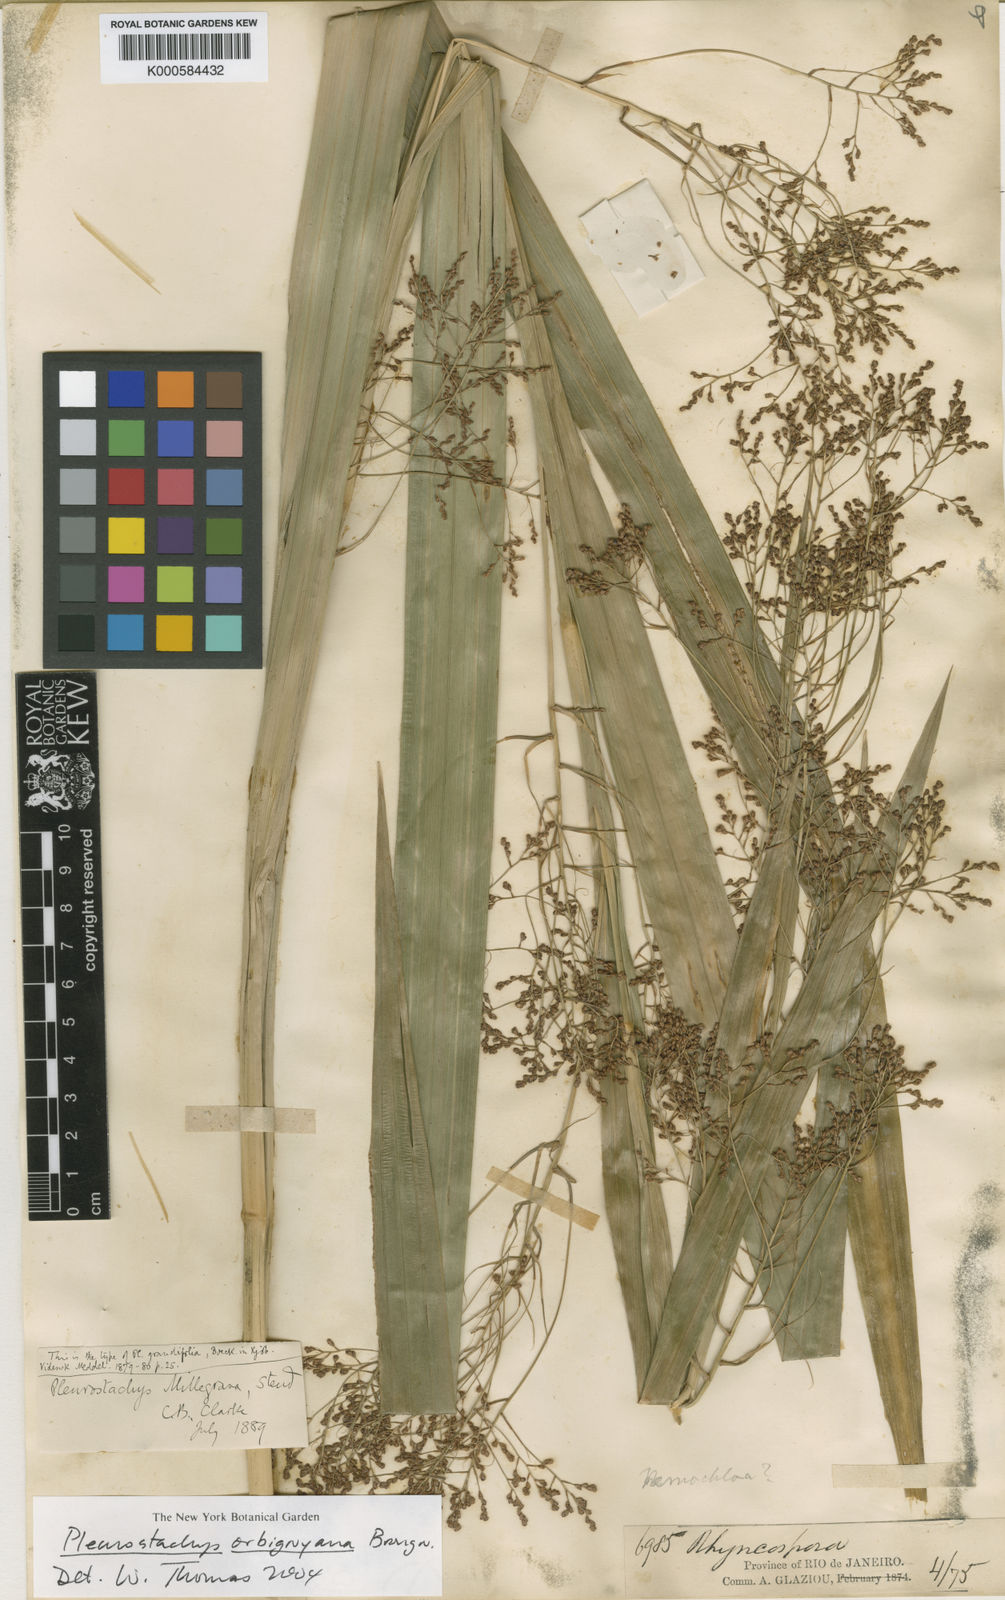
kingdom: Plantae
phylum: Tracheophyta
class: Liliopsida
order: Poales
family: Cyperaceae
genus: Rhynchospora
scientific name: Rhynchospora orbignyana
